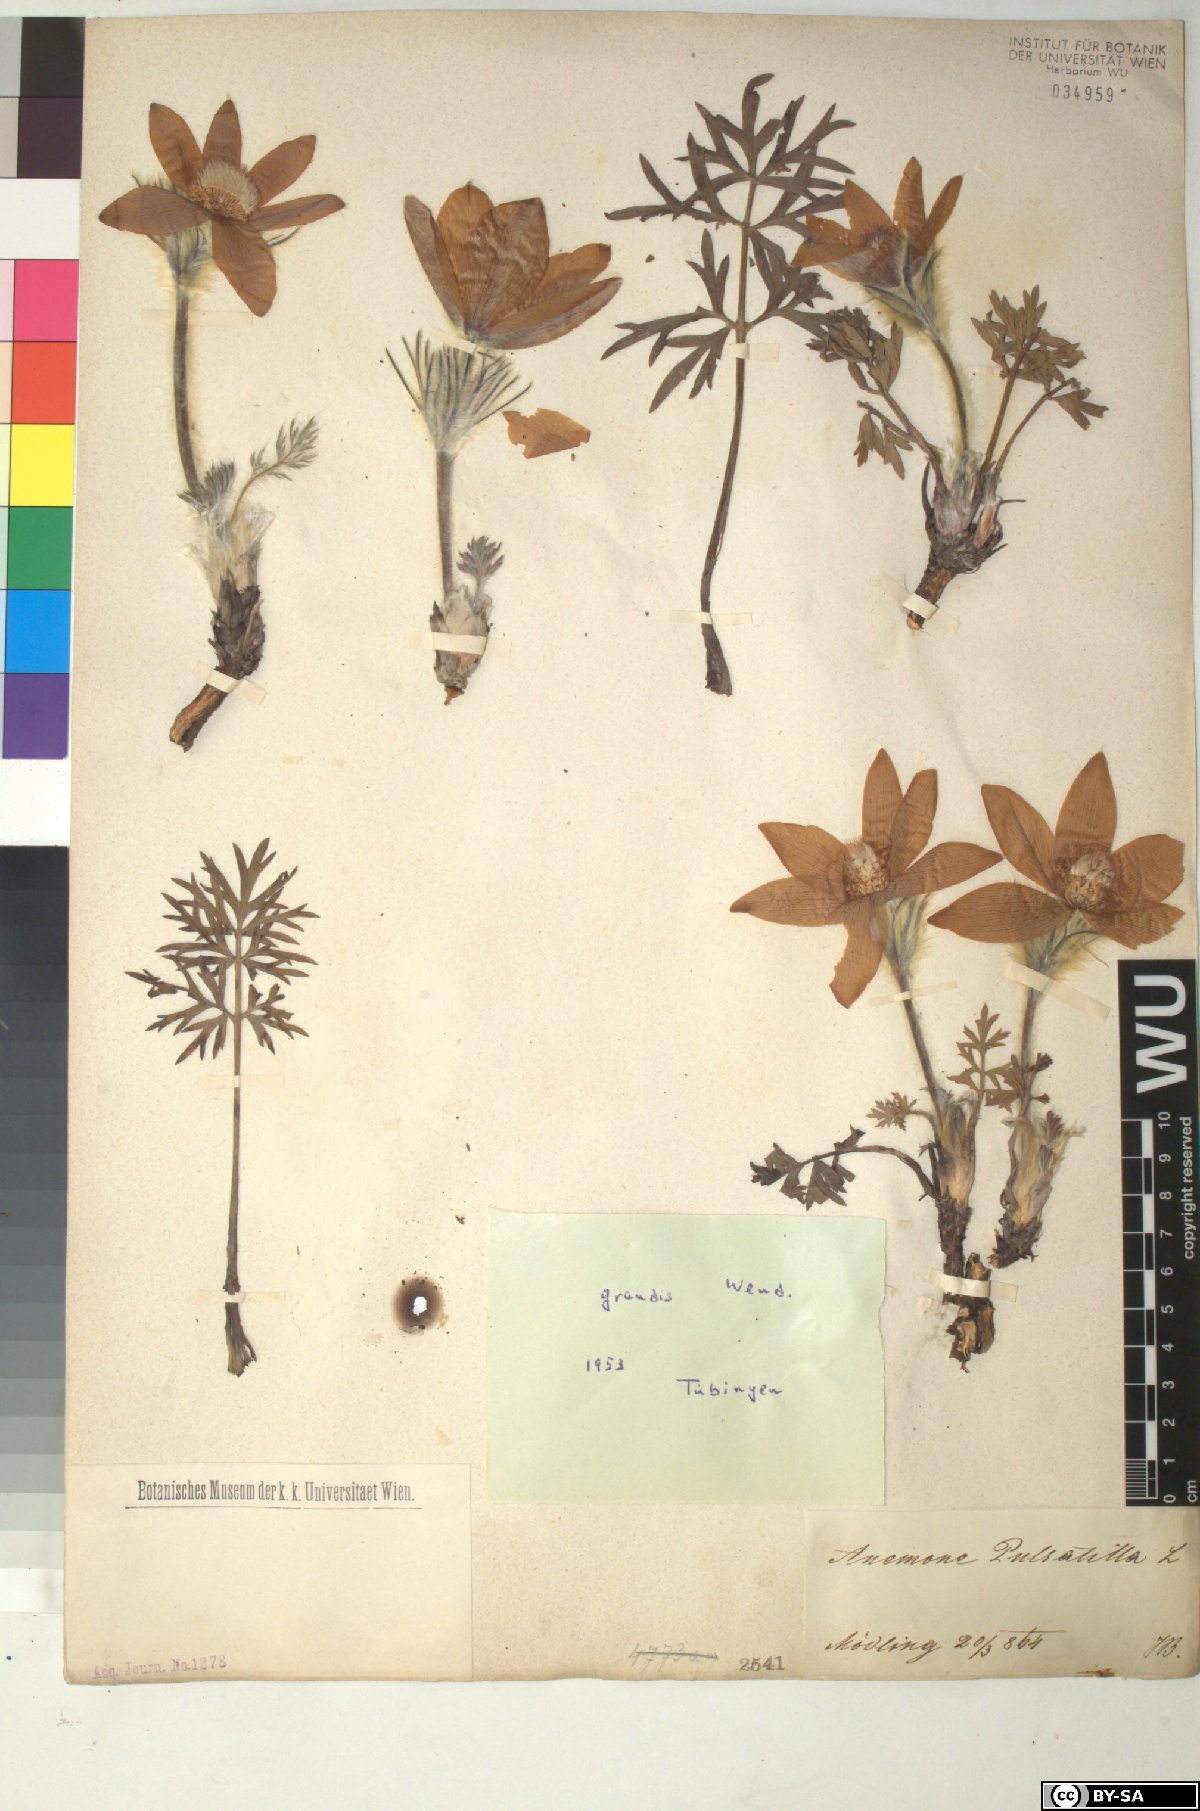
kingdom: Plantae
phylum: Tracheophyta
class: Magnoliopsida
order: Ranunculales
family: Ranunculaceae
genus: Pulsatilla
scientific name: Pulsatilla grandis
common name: Greater pasque flower
